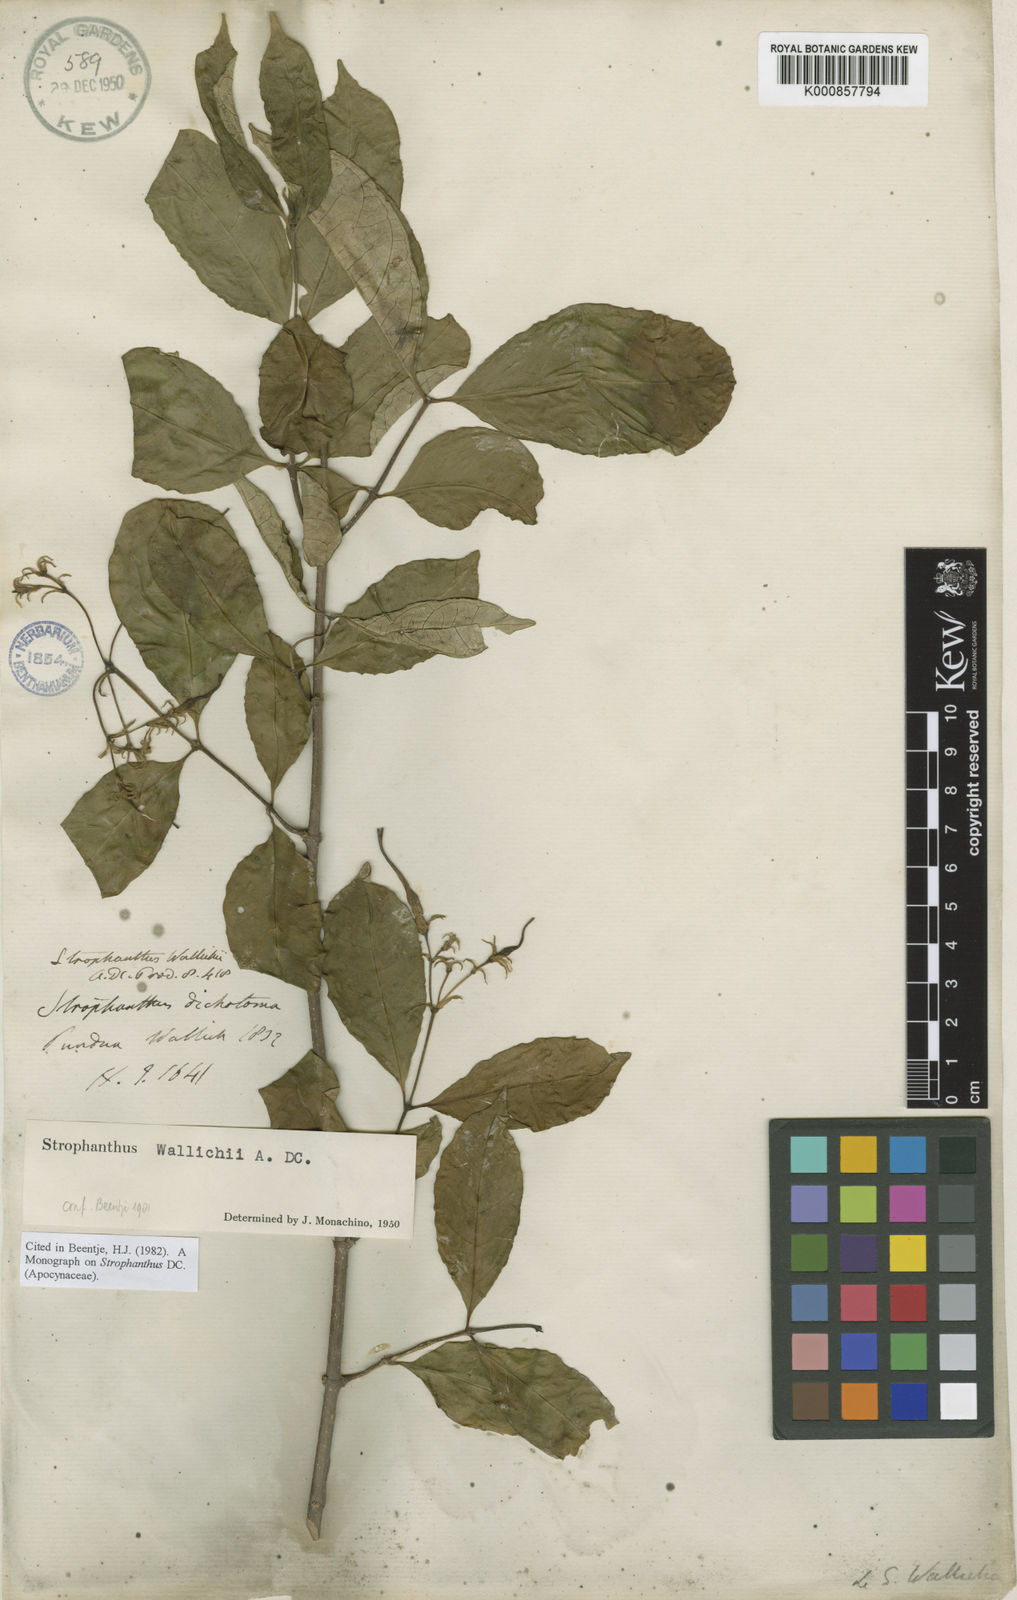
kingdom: Plantae
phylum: Tracheophyta
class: Magnoliopsida
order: Gentianales
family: Apocynaceae
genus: Strophanthus
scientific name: Strophanthus wallichii
